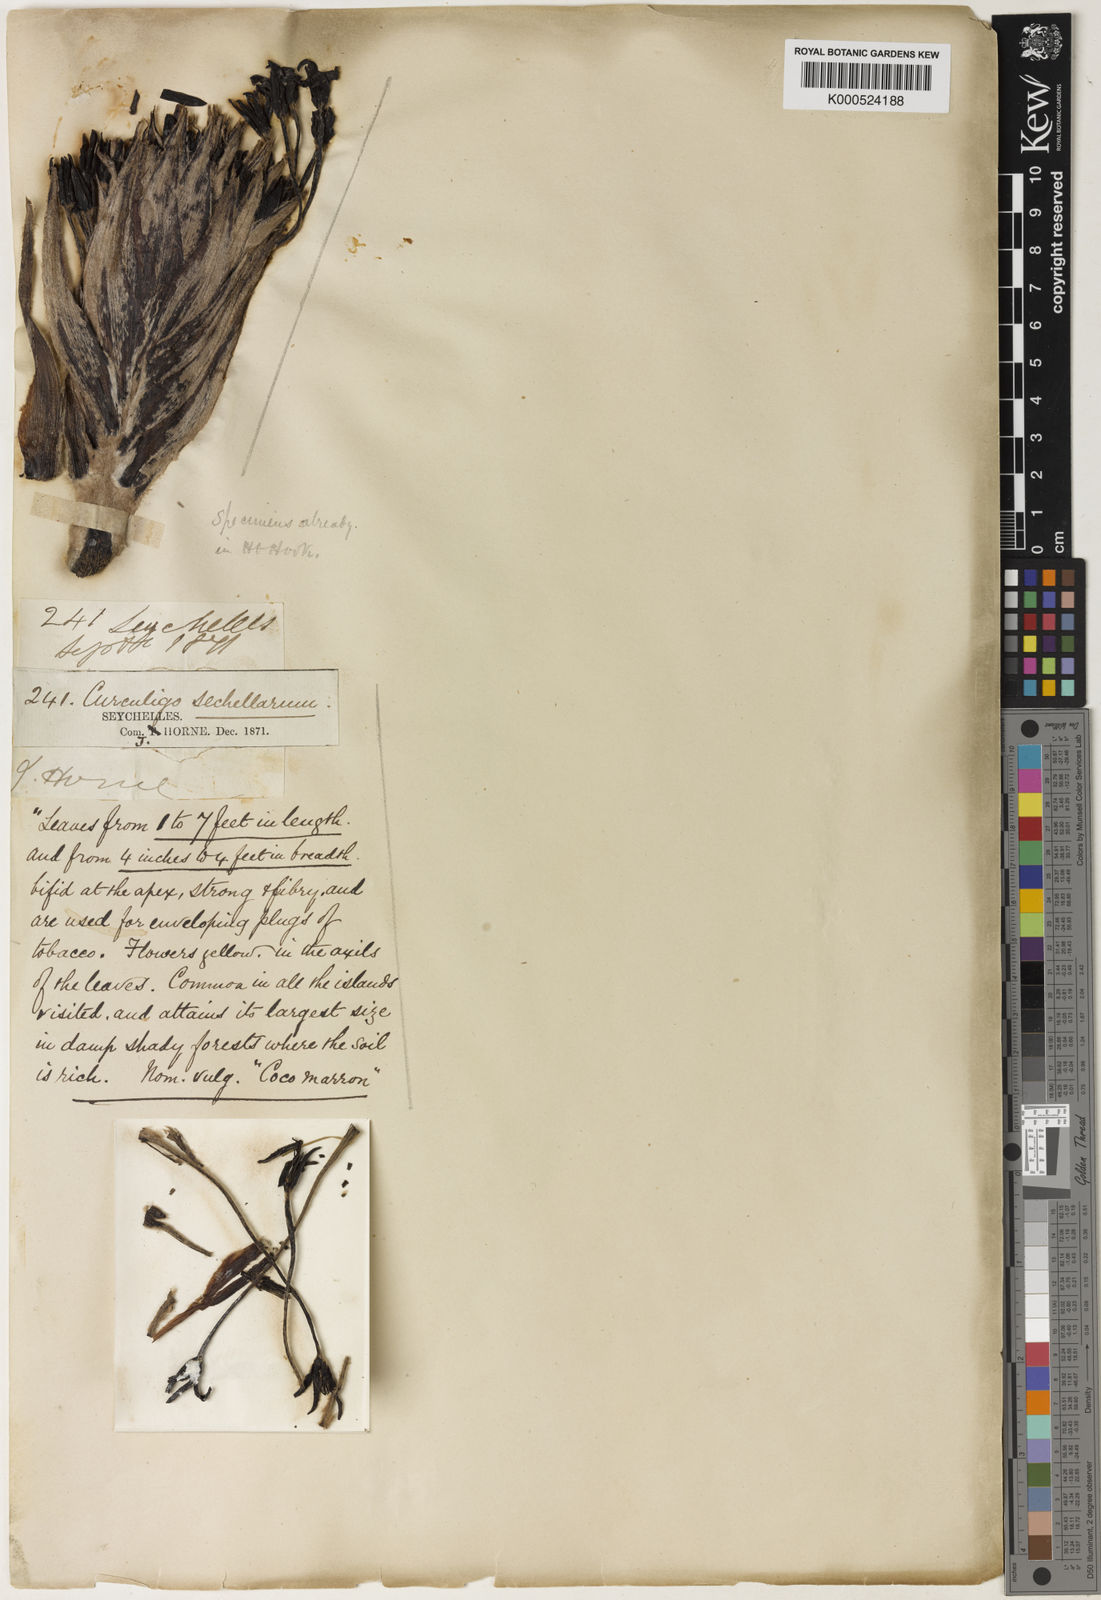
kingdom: Plantae
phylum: Tracheophyta
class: Liliopsida
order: Asparagales
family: Hypoxidaceae
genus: Curculigo
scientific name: Curculigo seychellensis
